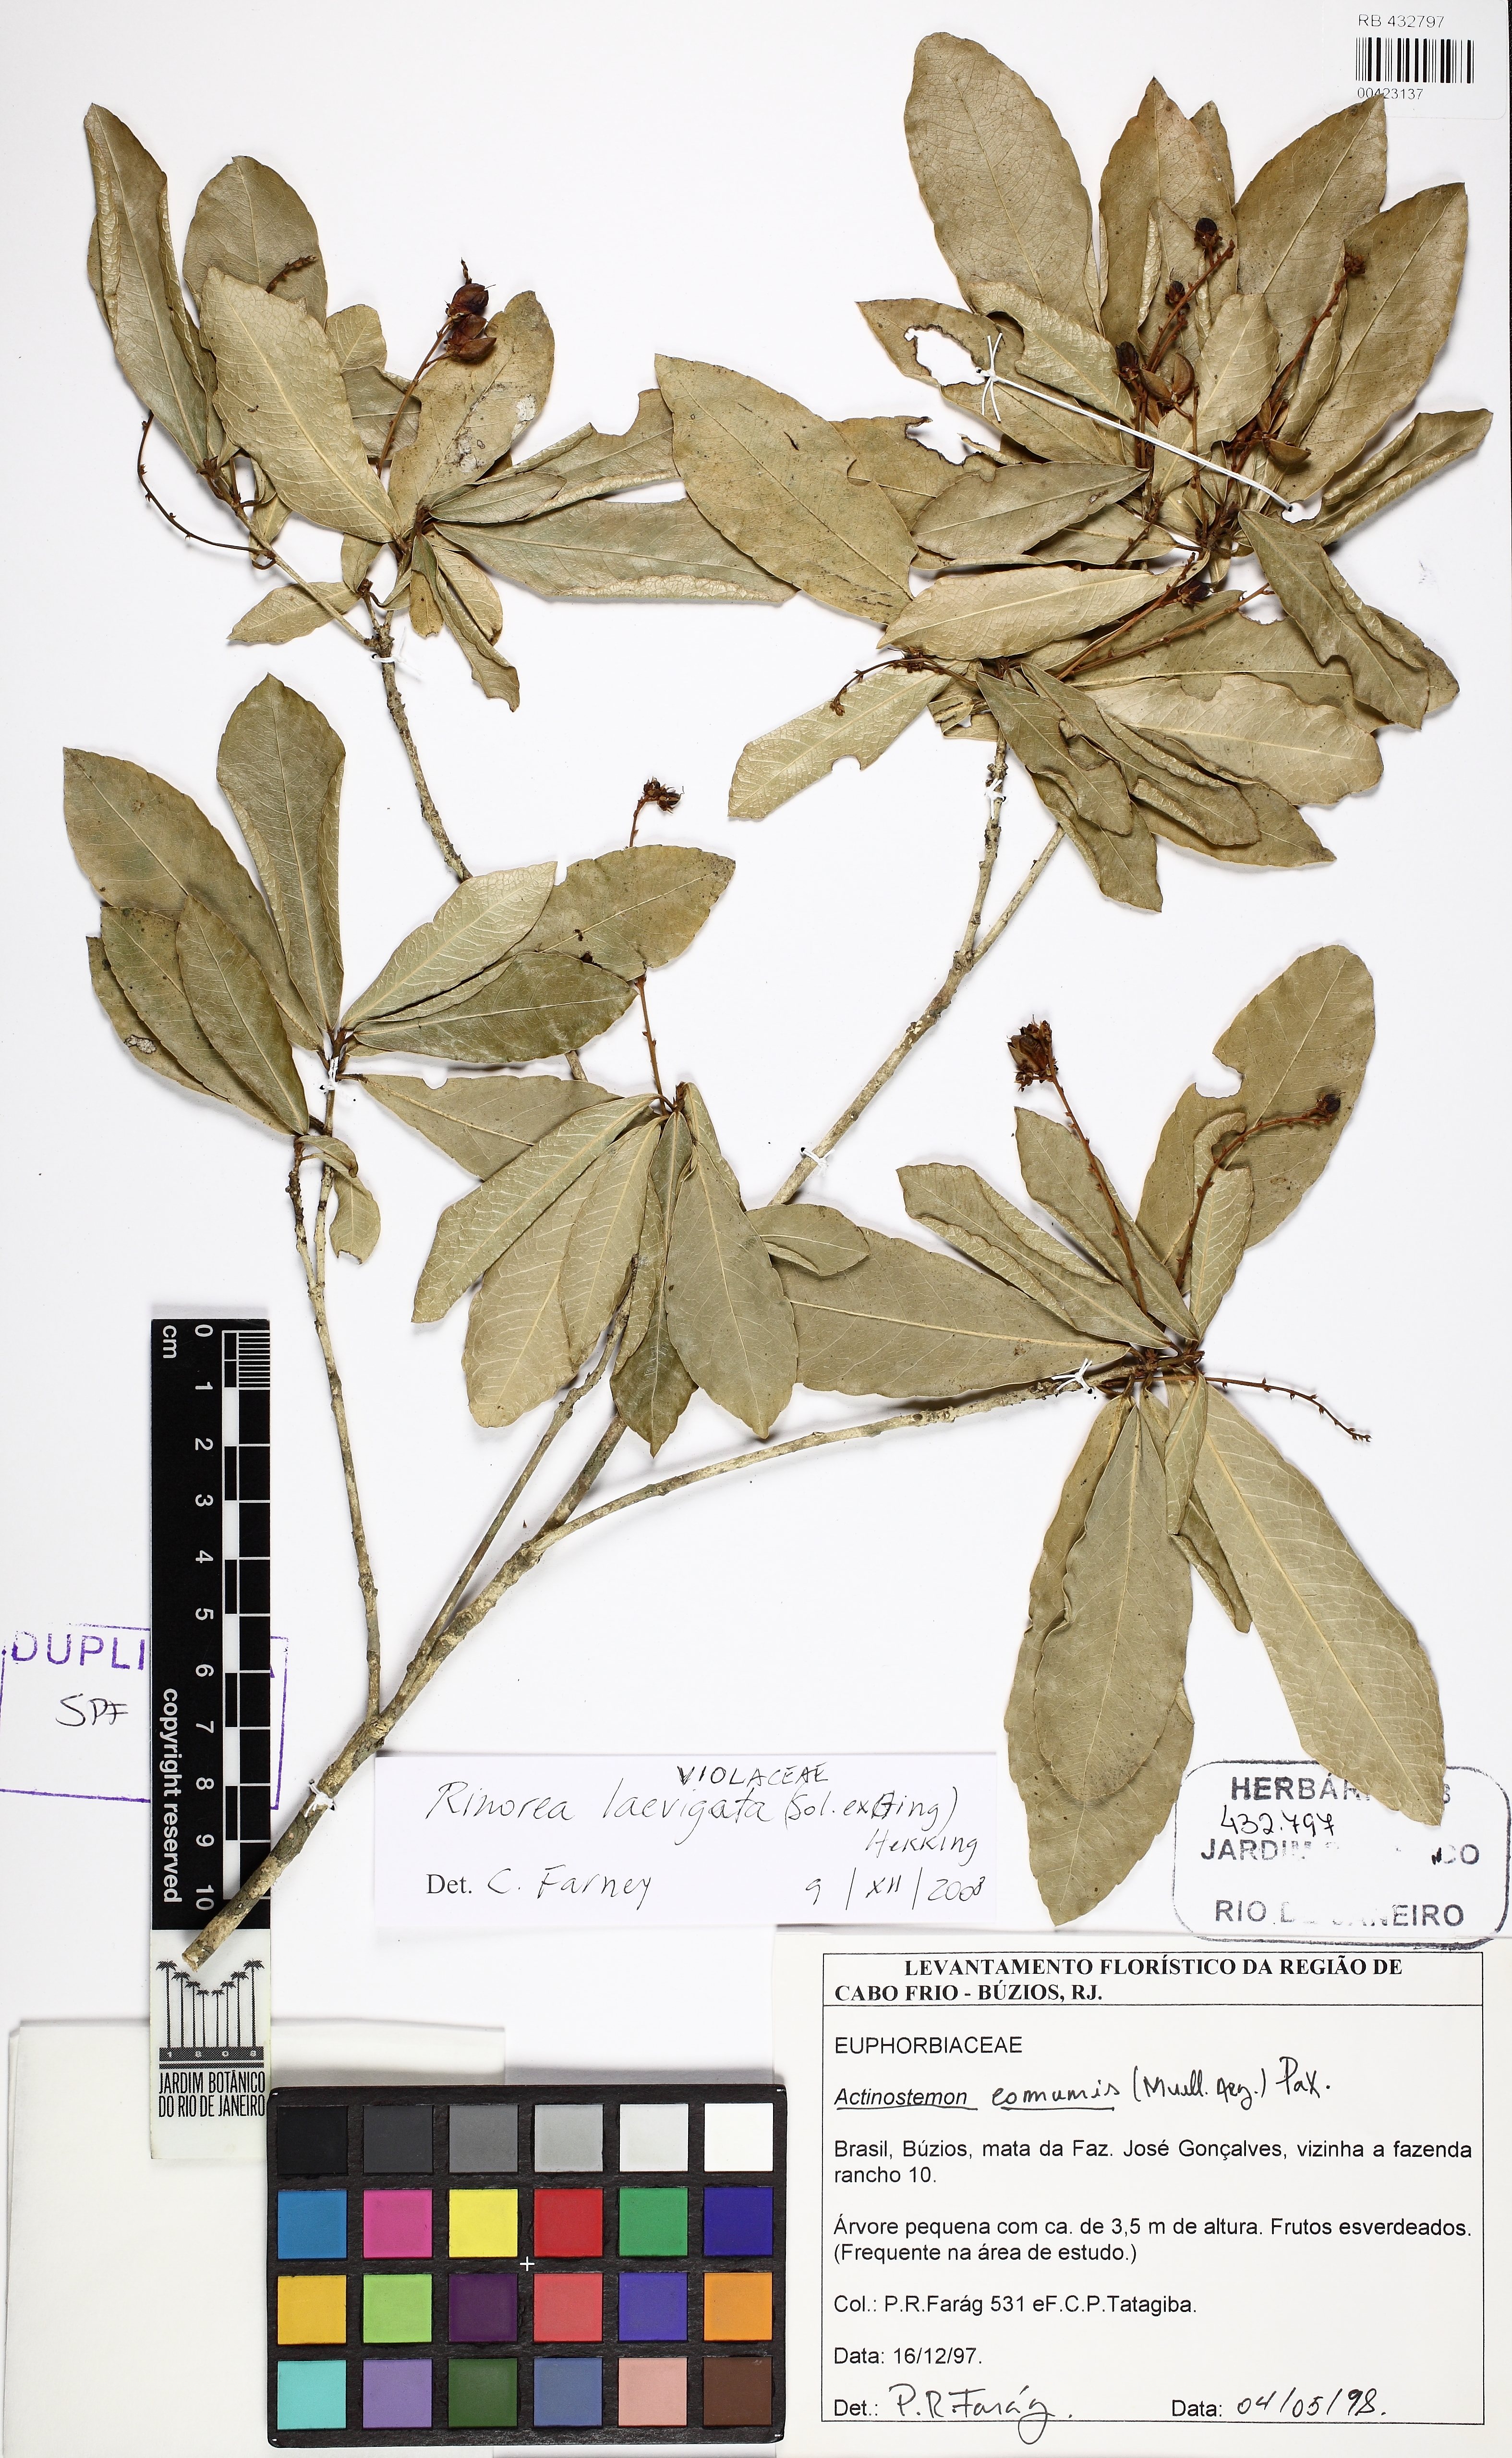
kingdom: Plantae
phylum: Tracheophyta
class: Magnoliopsida
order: Malpighiales
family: Violaceae
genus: Rinorea
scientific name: Rinorea laevigata
